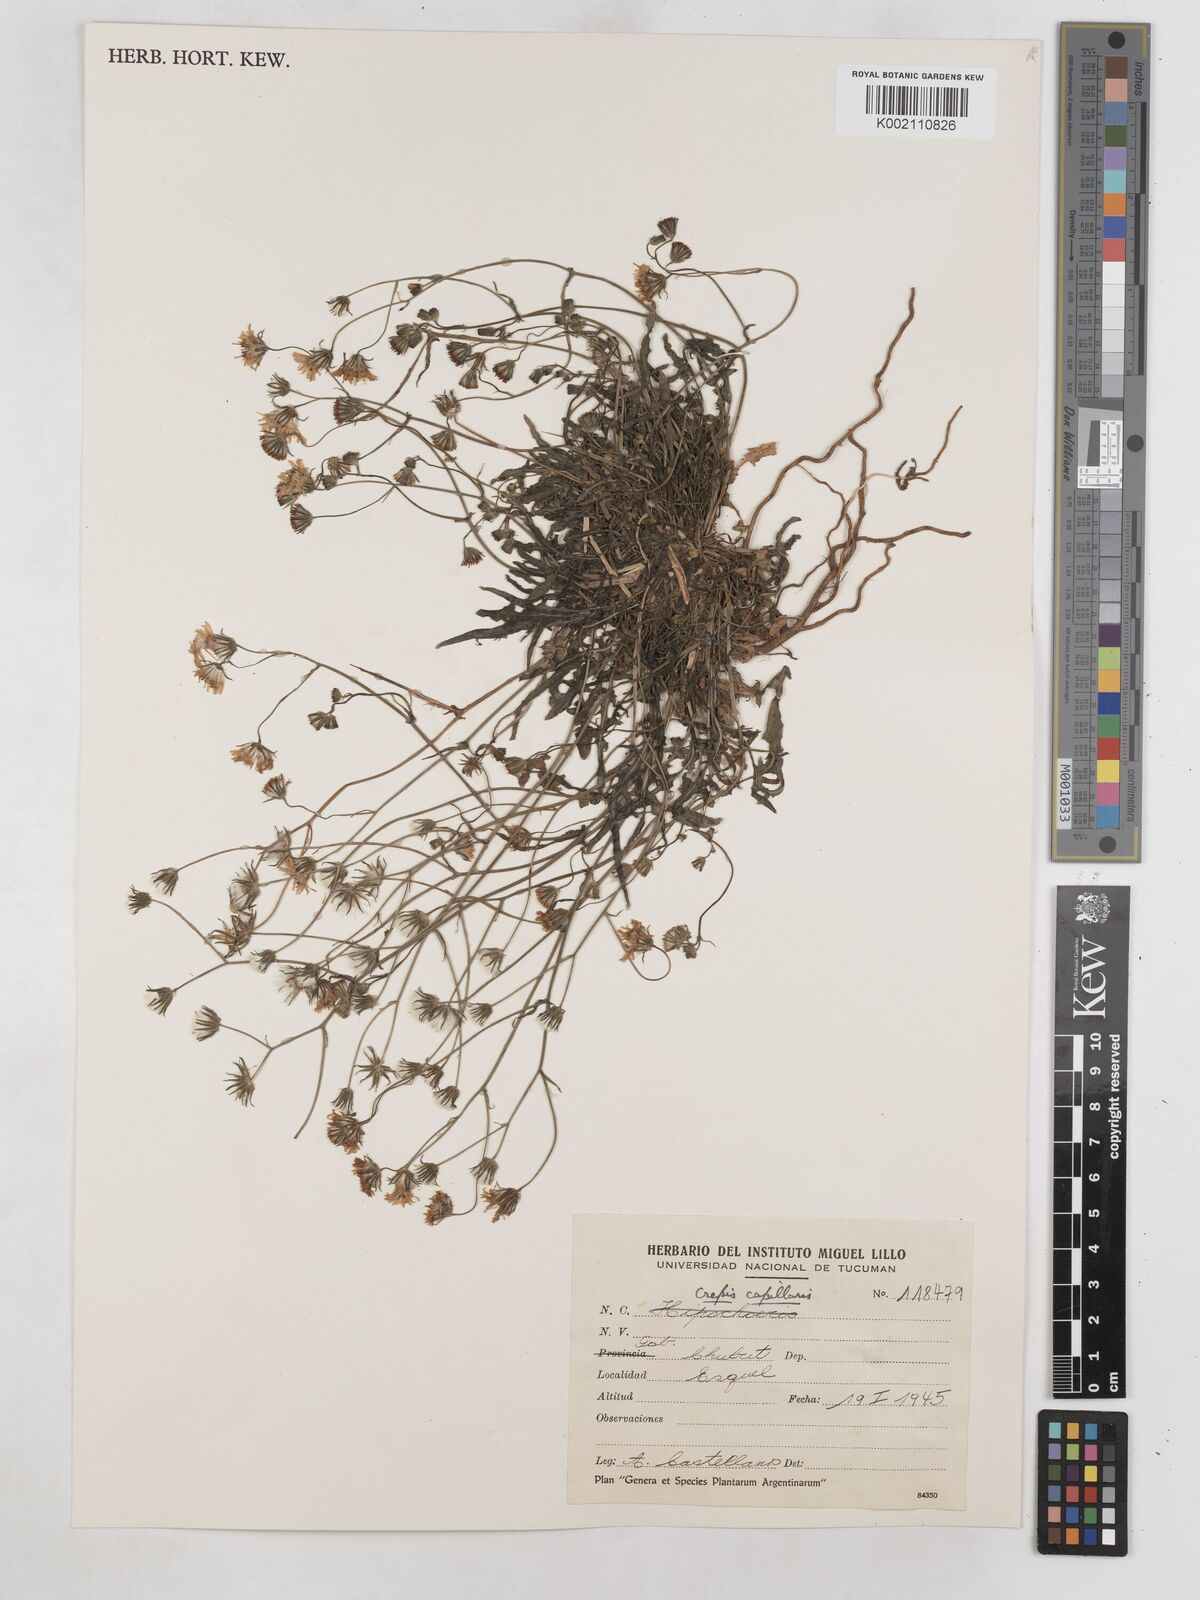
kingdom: Plantae
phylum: Tracheophyta
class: Magnoliopsida
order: Asterales
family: Asteraceae
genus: Crepis
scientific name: Crepis capillaris
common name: Smooth hawksbeard
